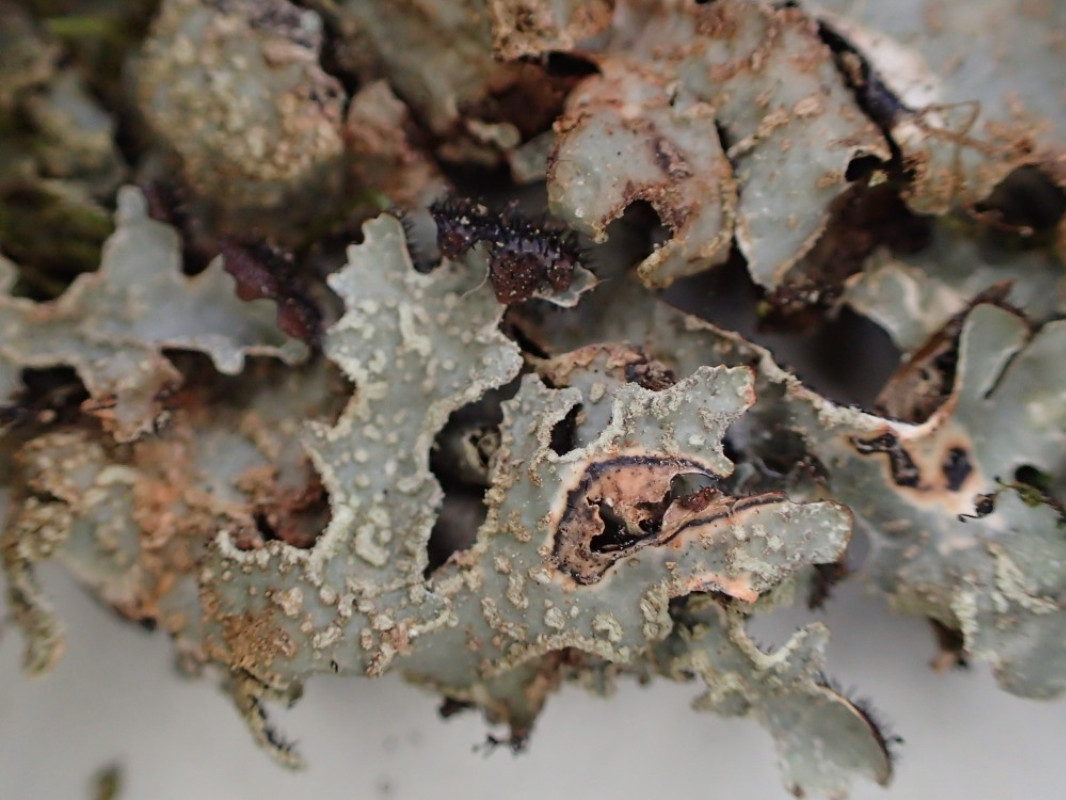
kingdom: Fungi
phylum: Ascomycota
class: Lecanoromycetes
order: Lecanorales
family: Parmeliaceae
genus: Parmelia
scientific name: Parmelia sulcata
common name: rynket skållav
